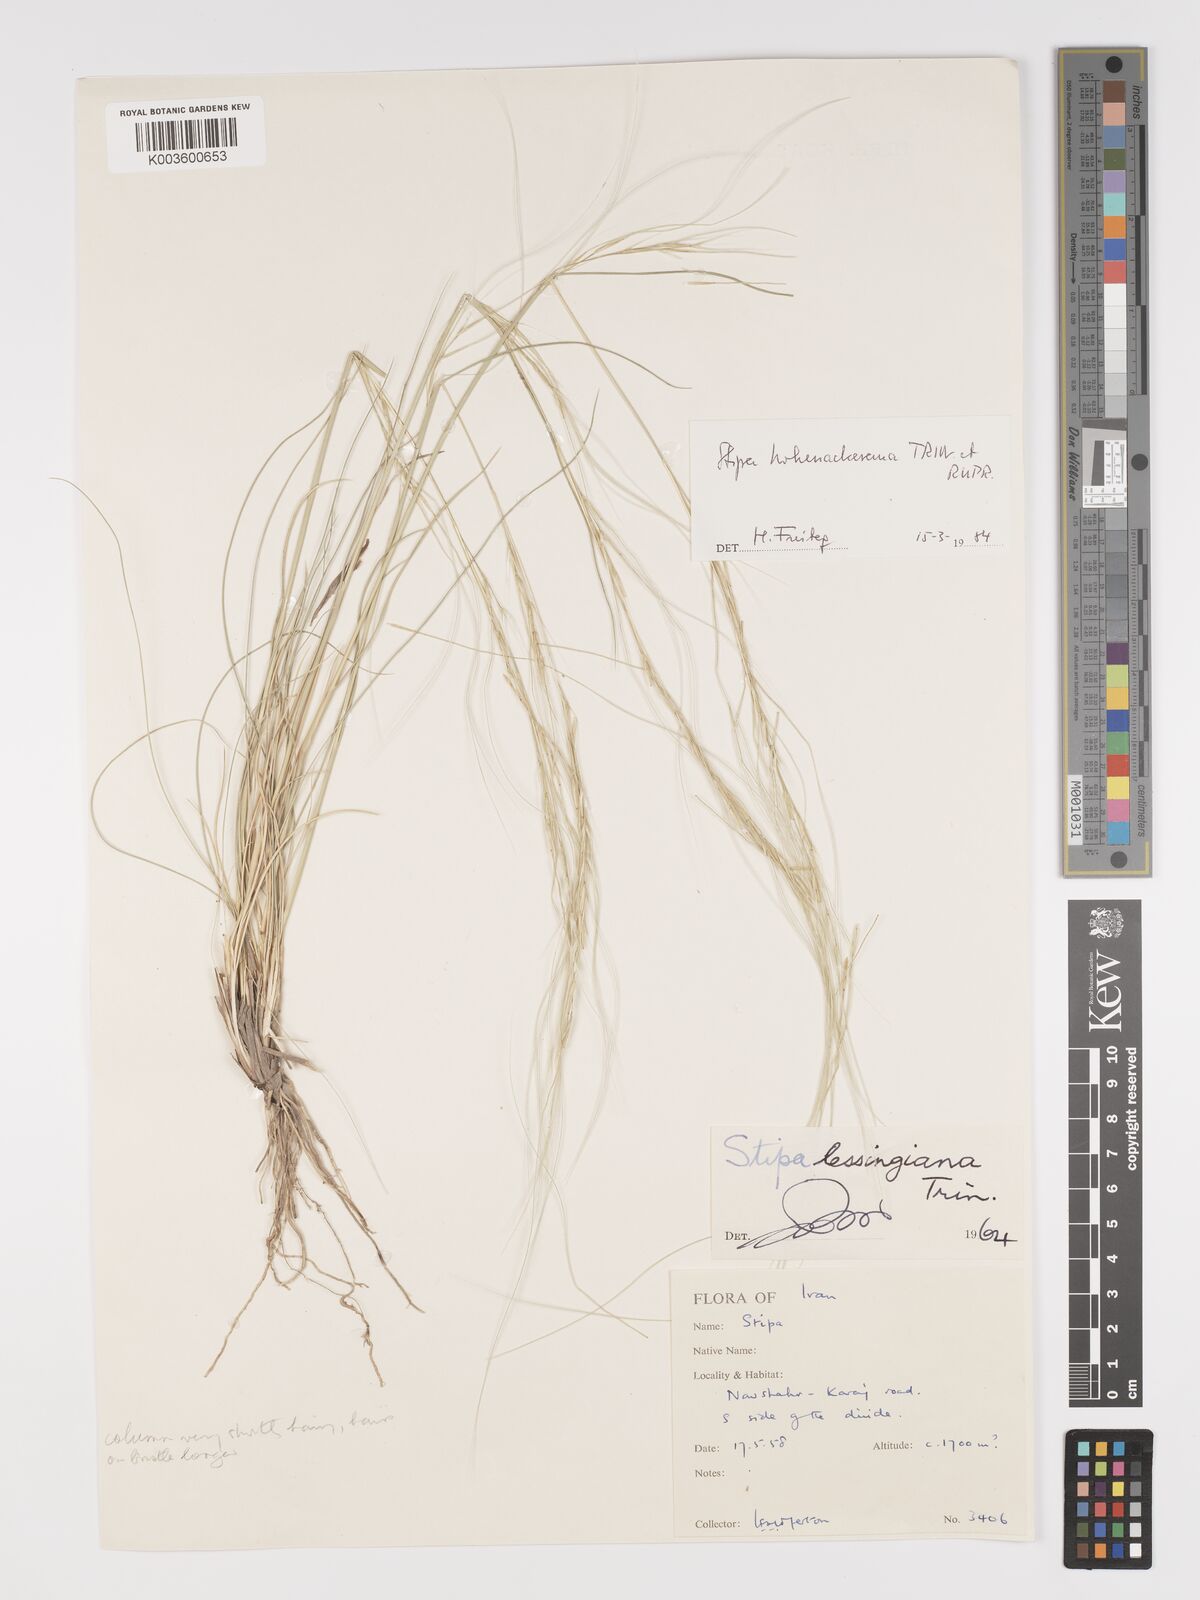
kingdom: Plantae
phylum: Tracheophyta
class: Liliopsida
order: Poales
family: Poaceae
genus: Stipa
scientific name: Stipa hohenackeriana
